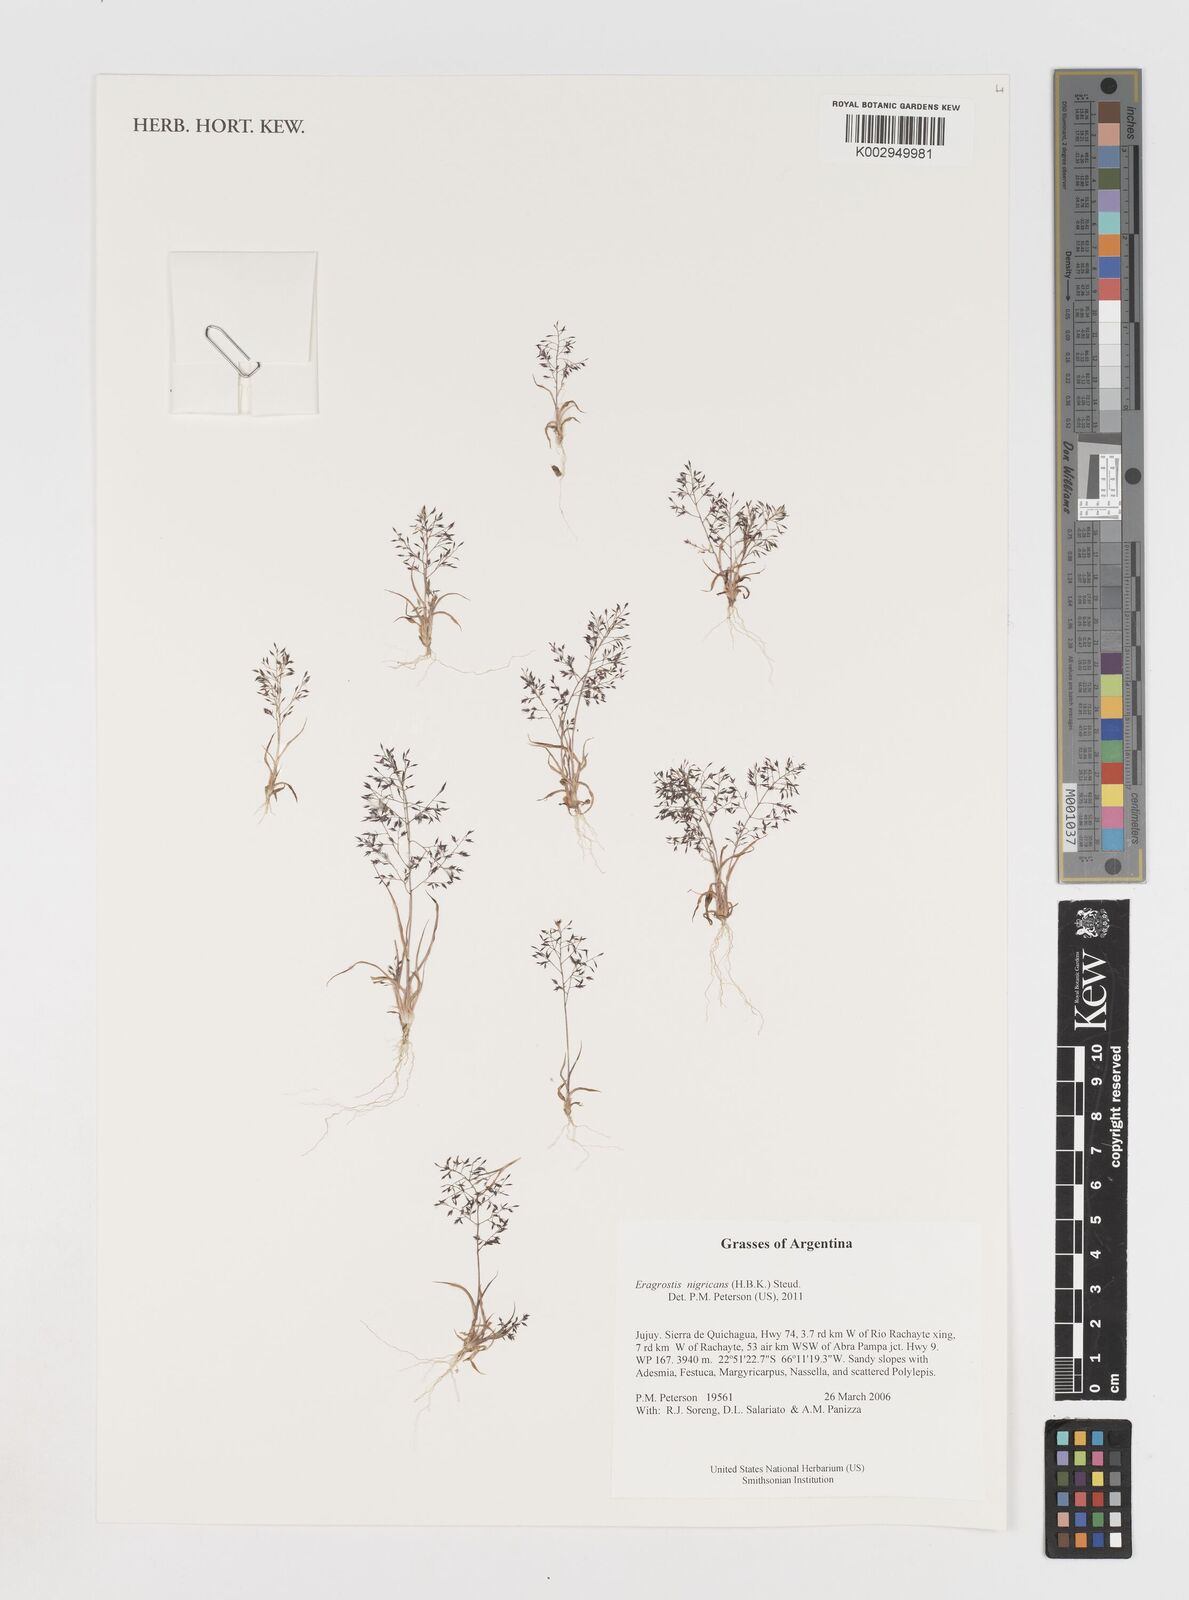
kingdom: Plantae
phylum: Tracheophyta
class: Liliopsida
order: Poales
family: Poaceae
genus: Eragrostis
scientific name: Eragrostis nigricans
